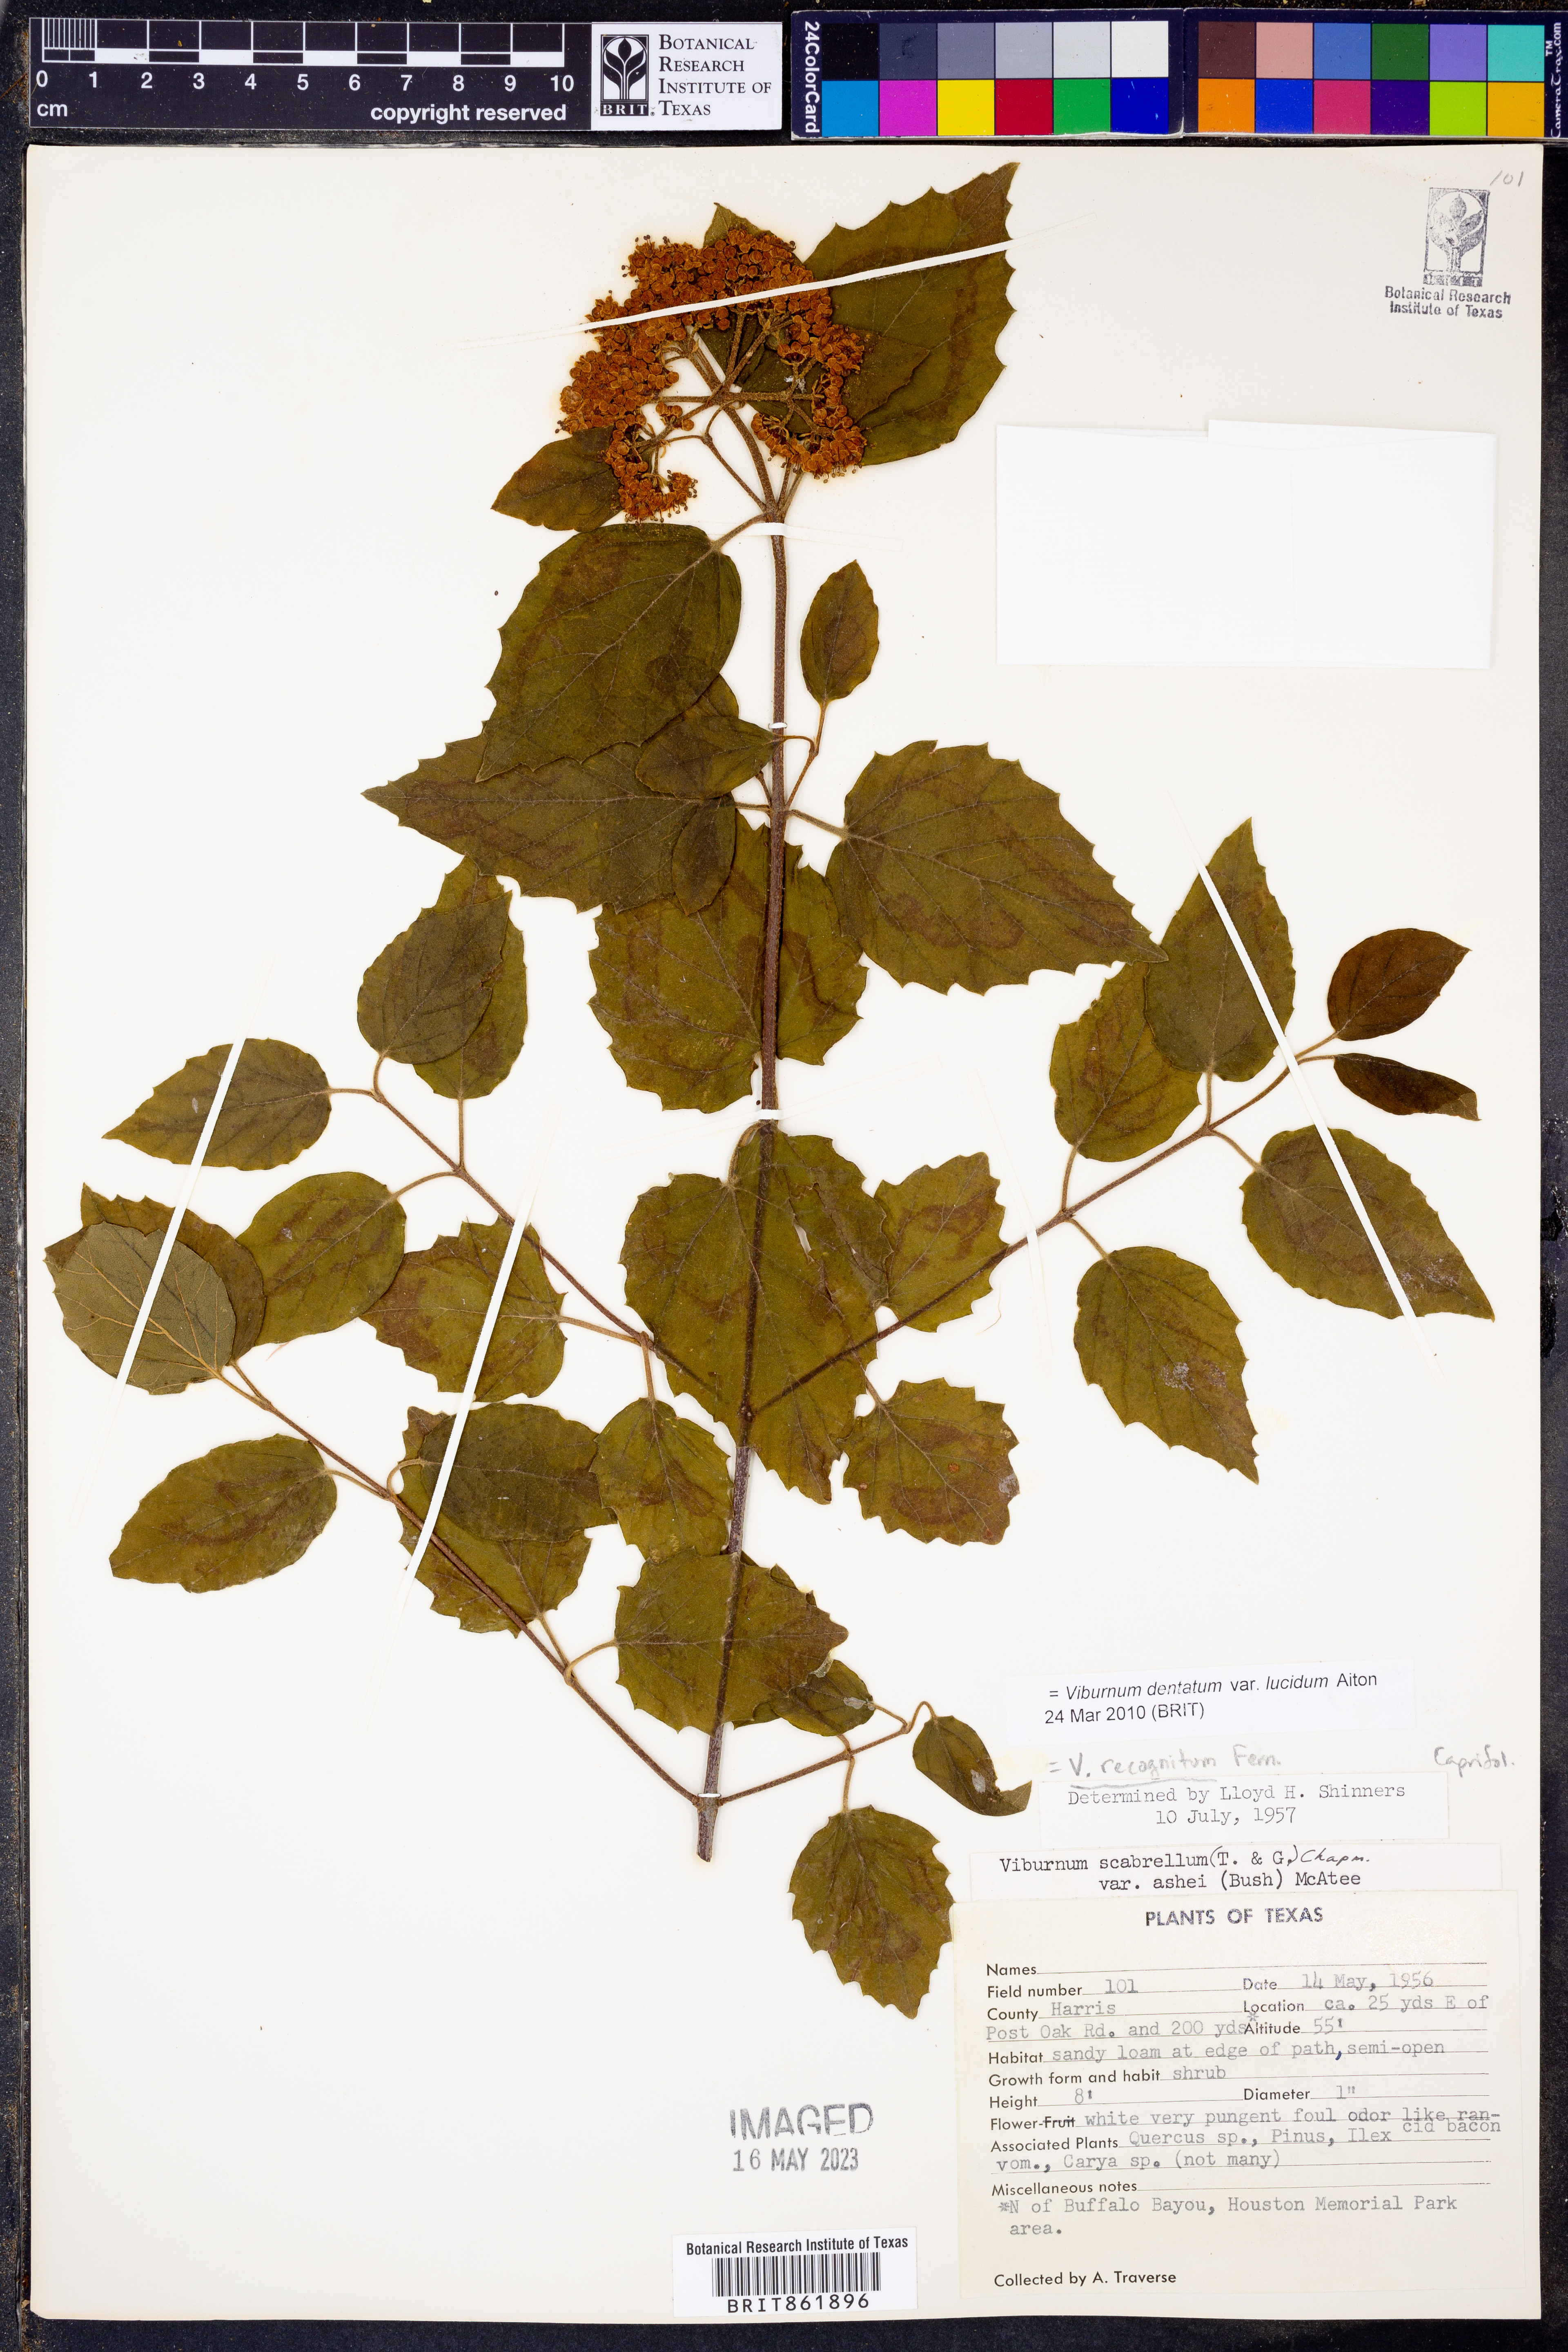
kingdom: Plantae
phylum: Tracheophyta
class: Magnoliopsida
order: Dipsacales
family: Viburnaceae
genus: Viburnum
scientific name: Viburnum recognitum
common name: Northern arrow-wood
